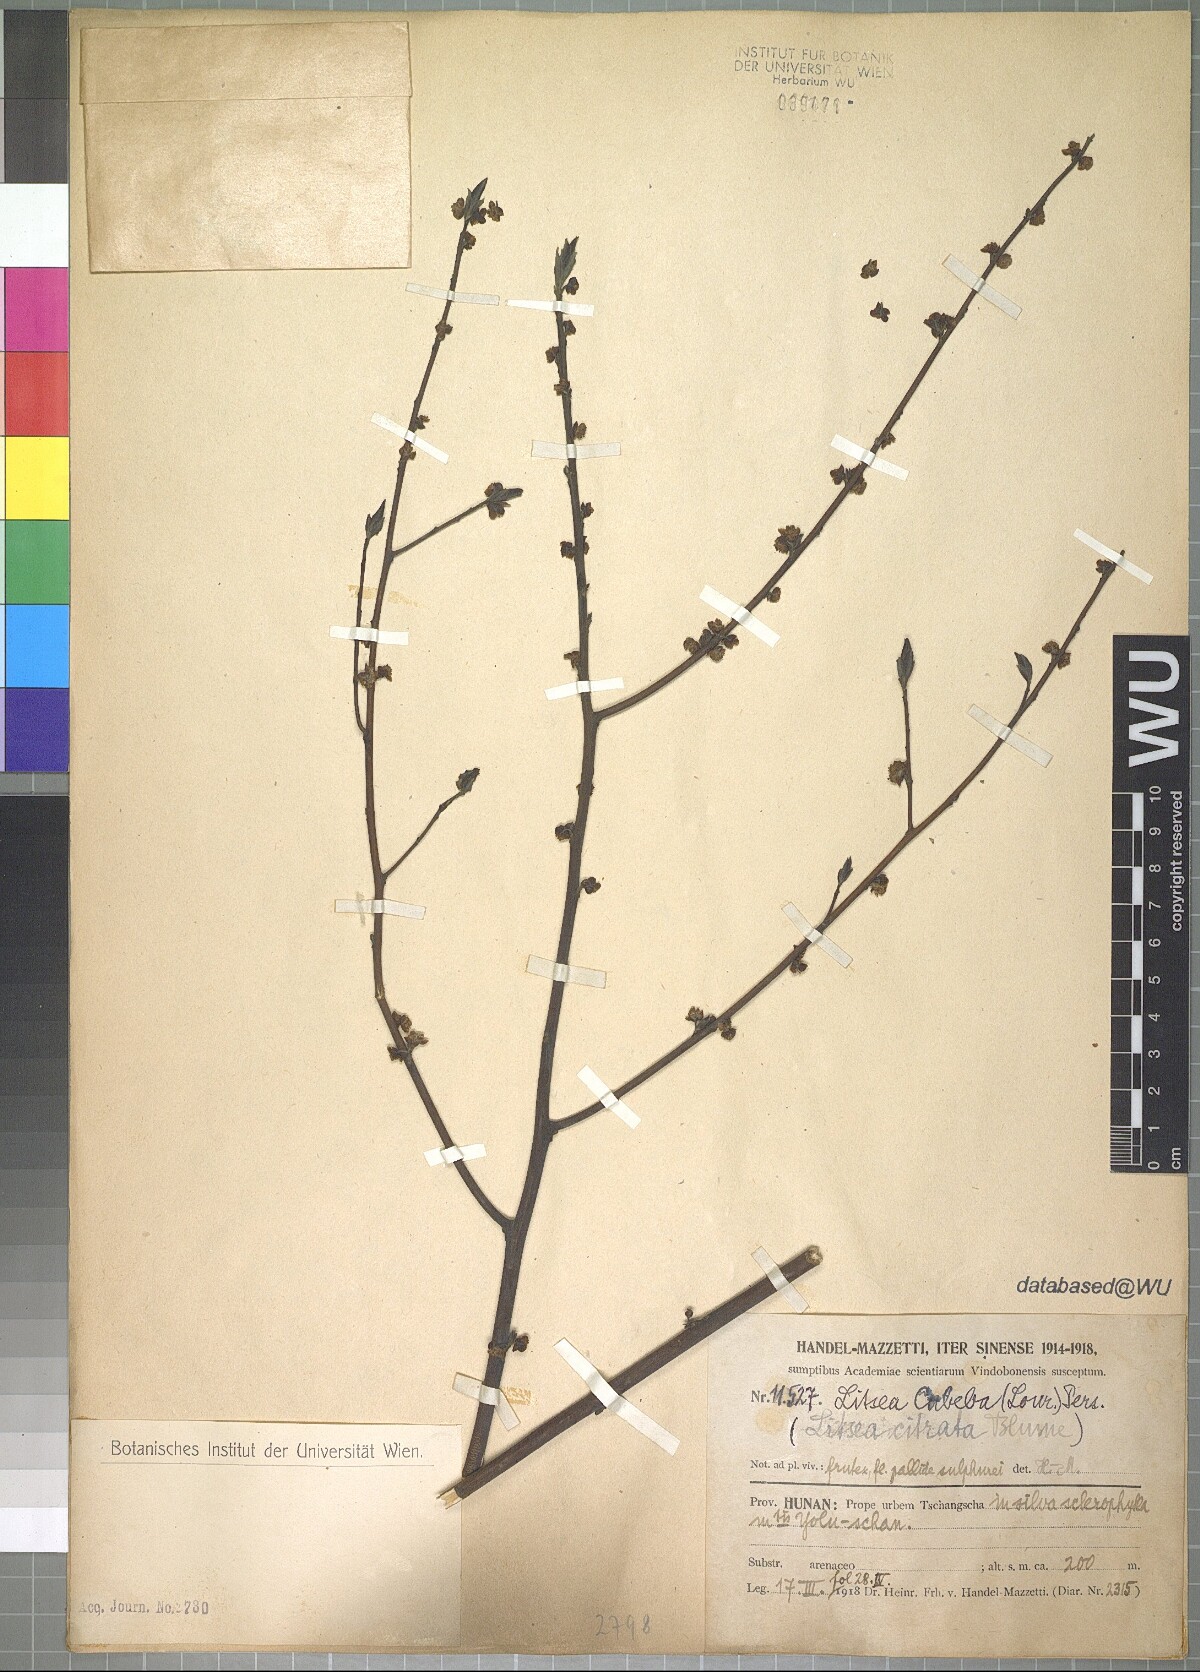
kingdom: Plantae
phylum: Tracheophyta
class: Magnoliopsida
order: Laurales
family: Lauraceae
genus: Litsea
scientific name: Litsea cubeba
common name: Mountain-pepper
